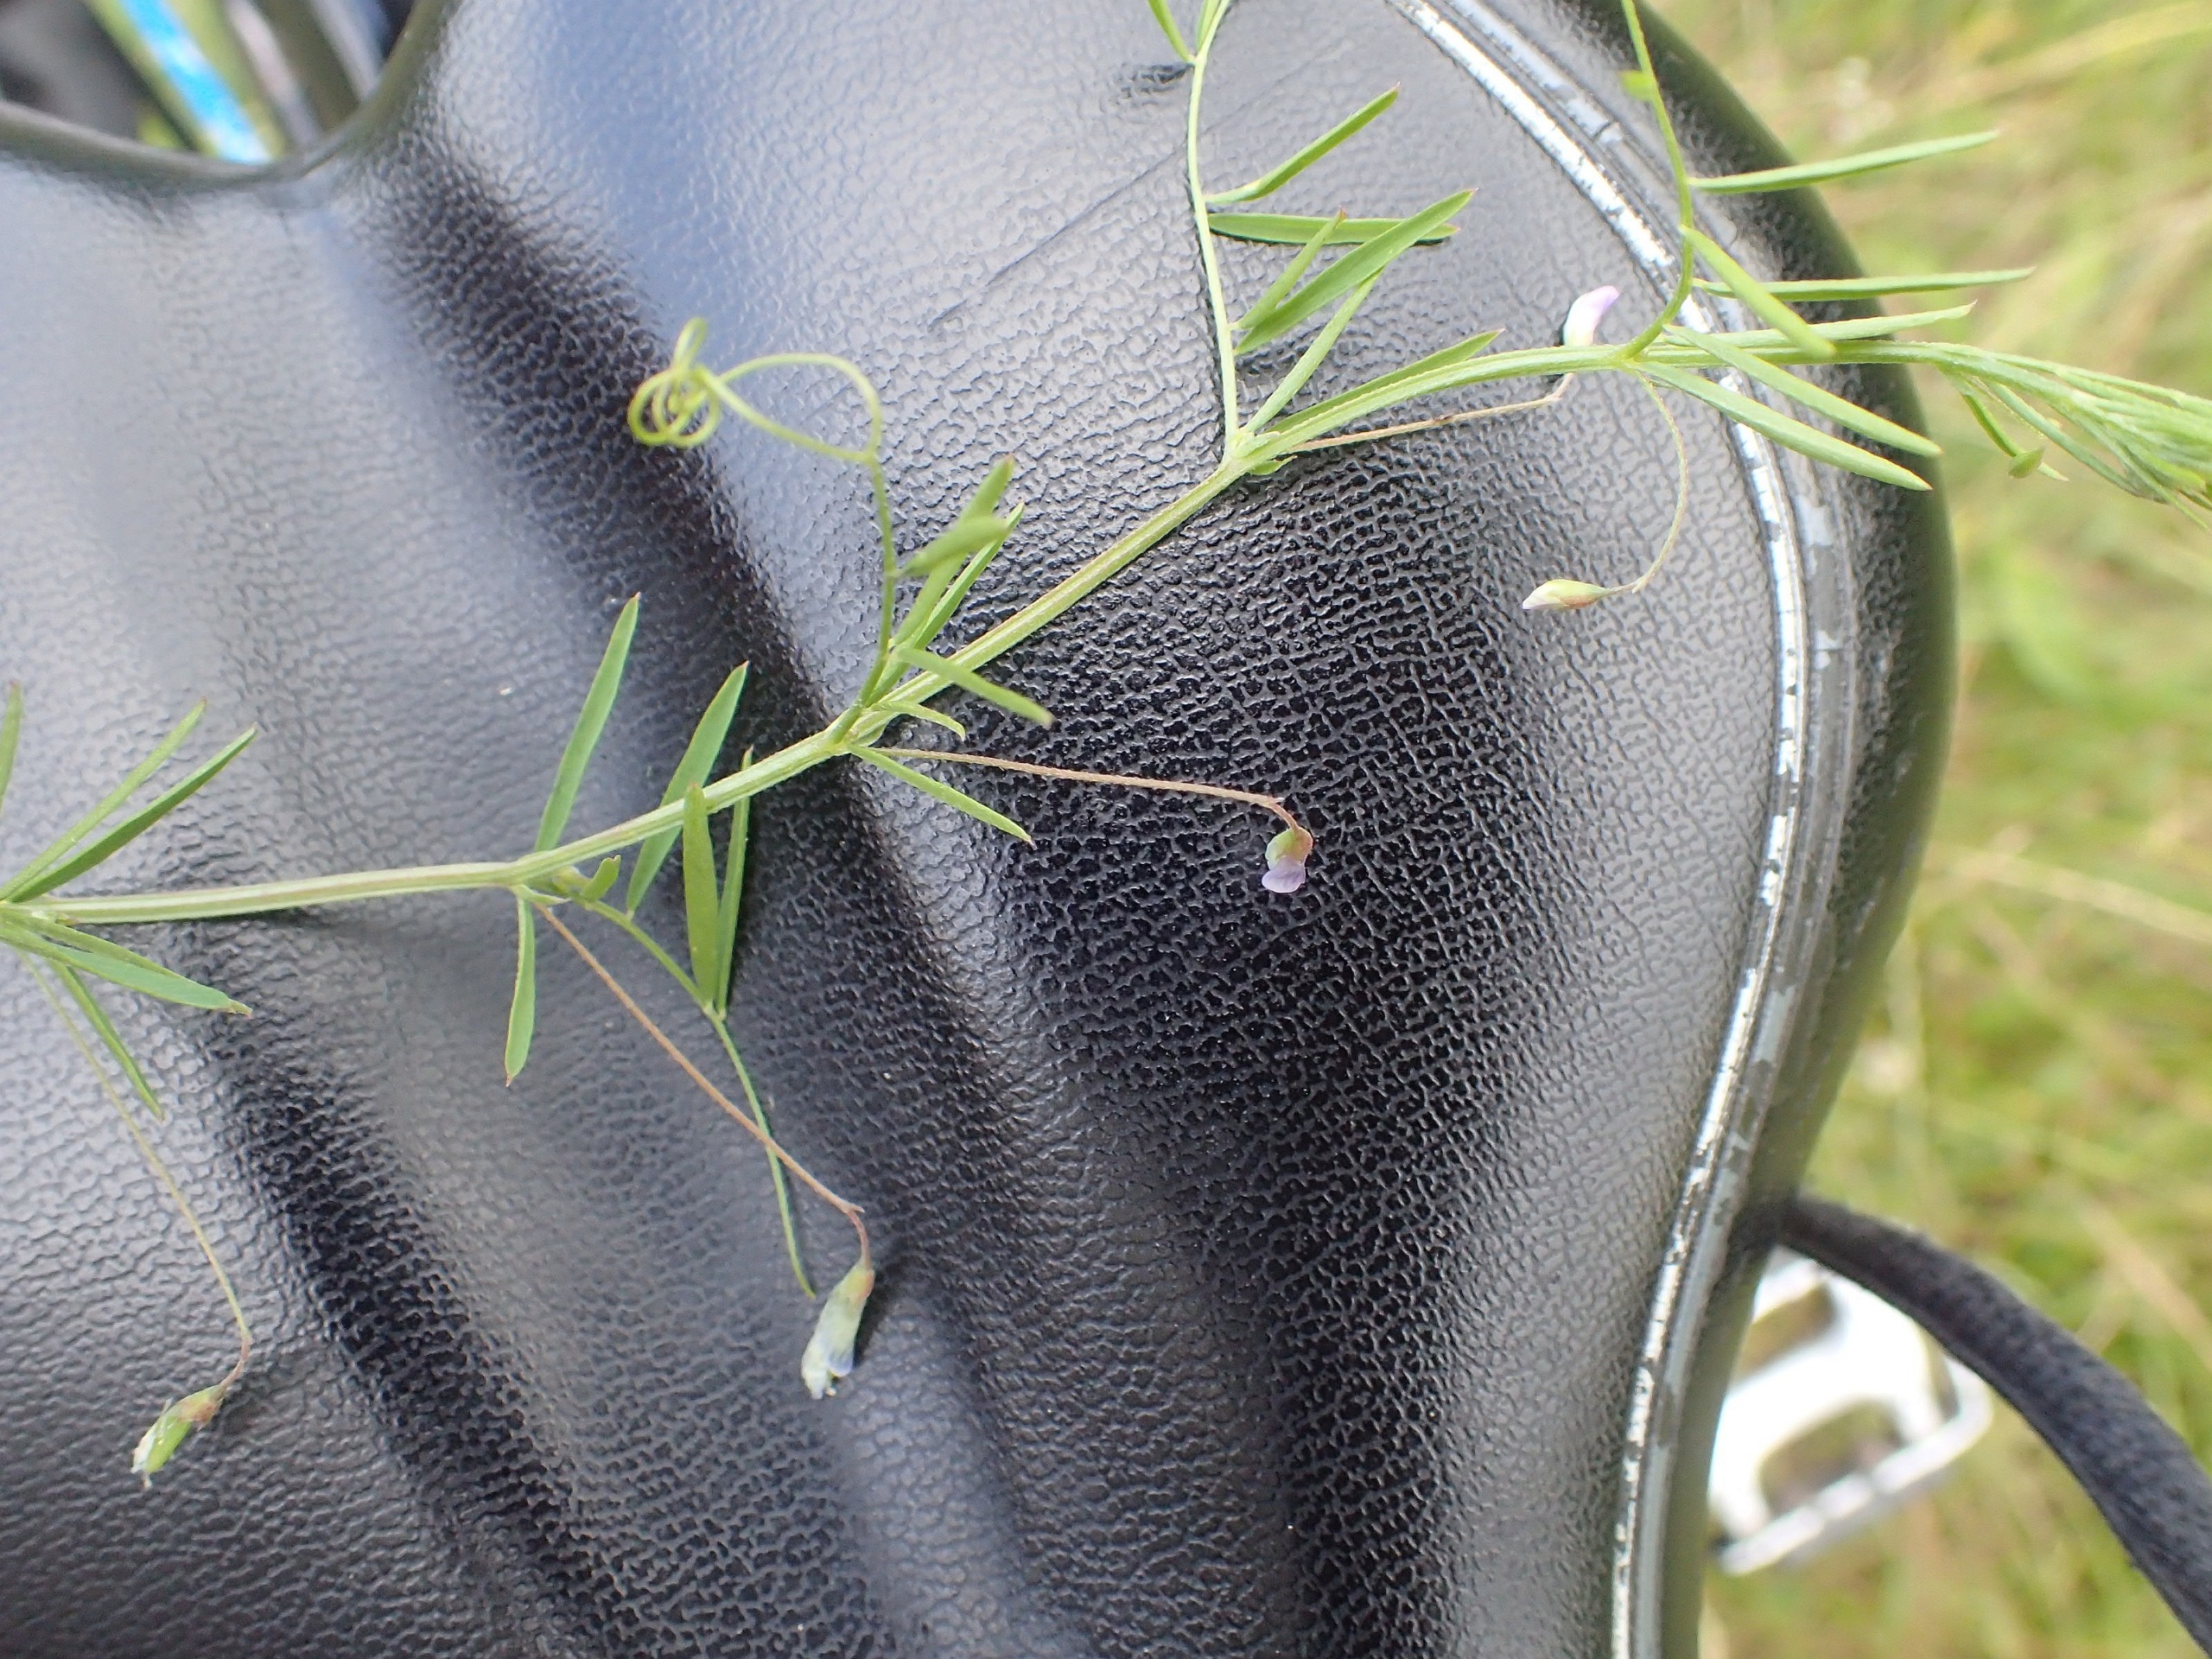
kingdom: Plantae
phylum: Tracheophyta
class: Magnoliopsida
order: Fabales
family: Fabaceae
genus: Vicia
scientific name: Vicia tetrasperma
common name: Tadder-vikke
